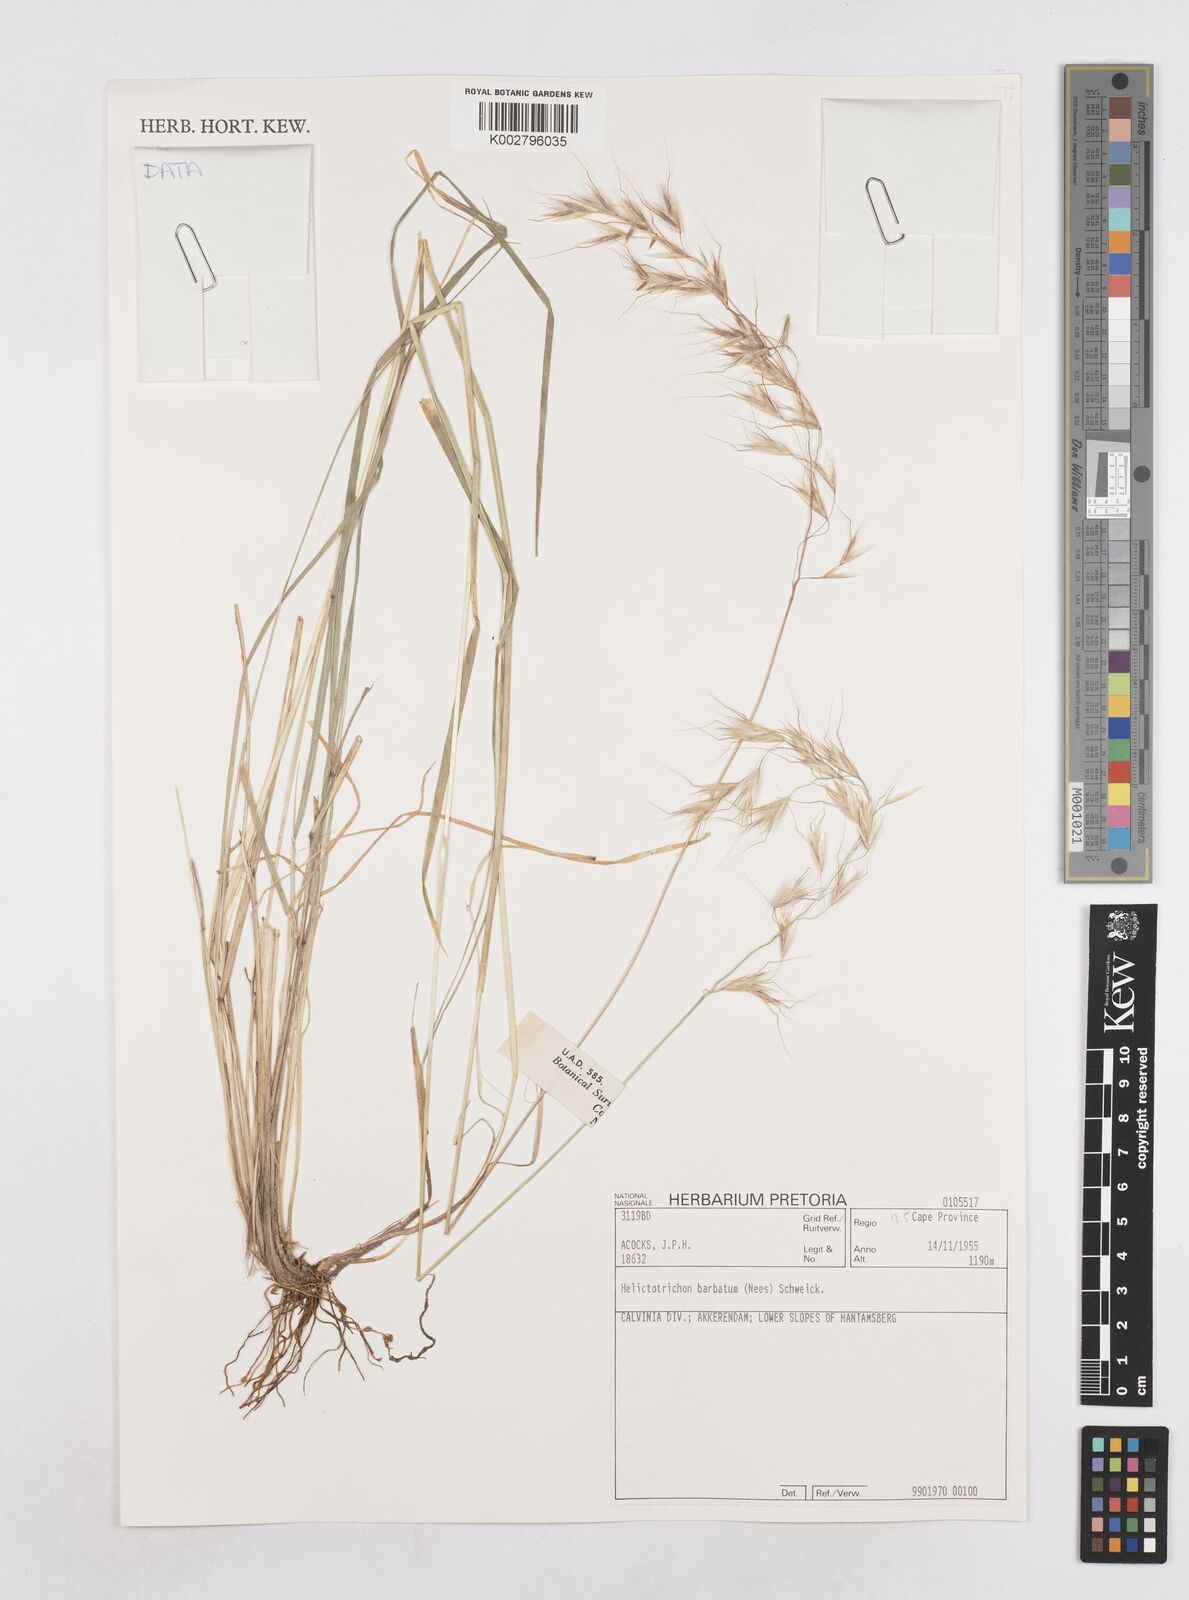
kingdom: Plantae
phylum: Tracheophyta
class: Liliopsida
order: Poales
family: Poaceae
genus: Trisetopsis
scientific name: Trisetopsis barbata
